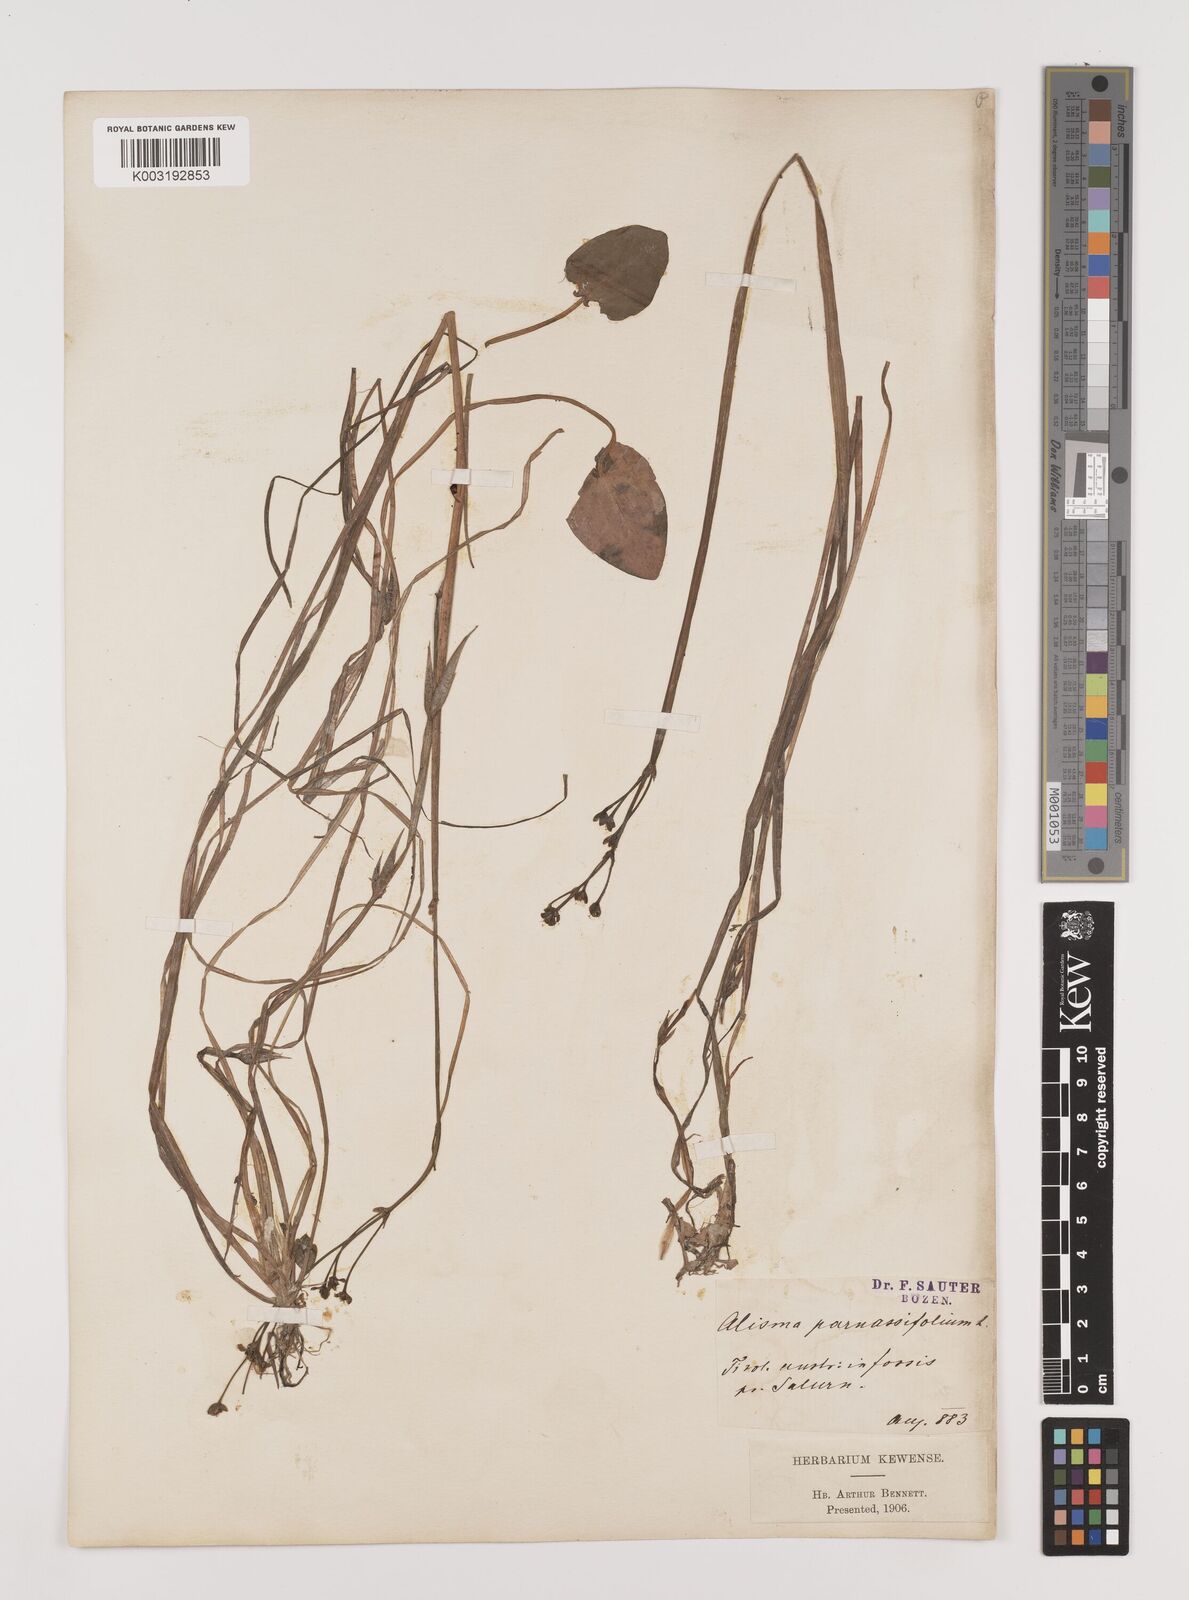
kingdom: Plantae
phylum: Tracheophyta
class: Liliopsida
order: Alismatales
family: Alismataceae
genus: Caldesia
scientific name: Caldesia parnassifolia
